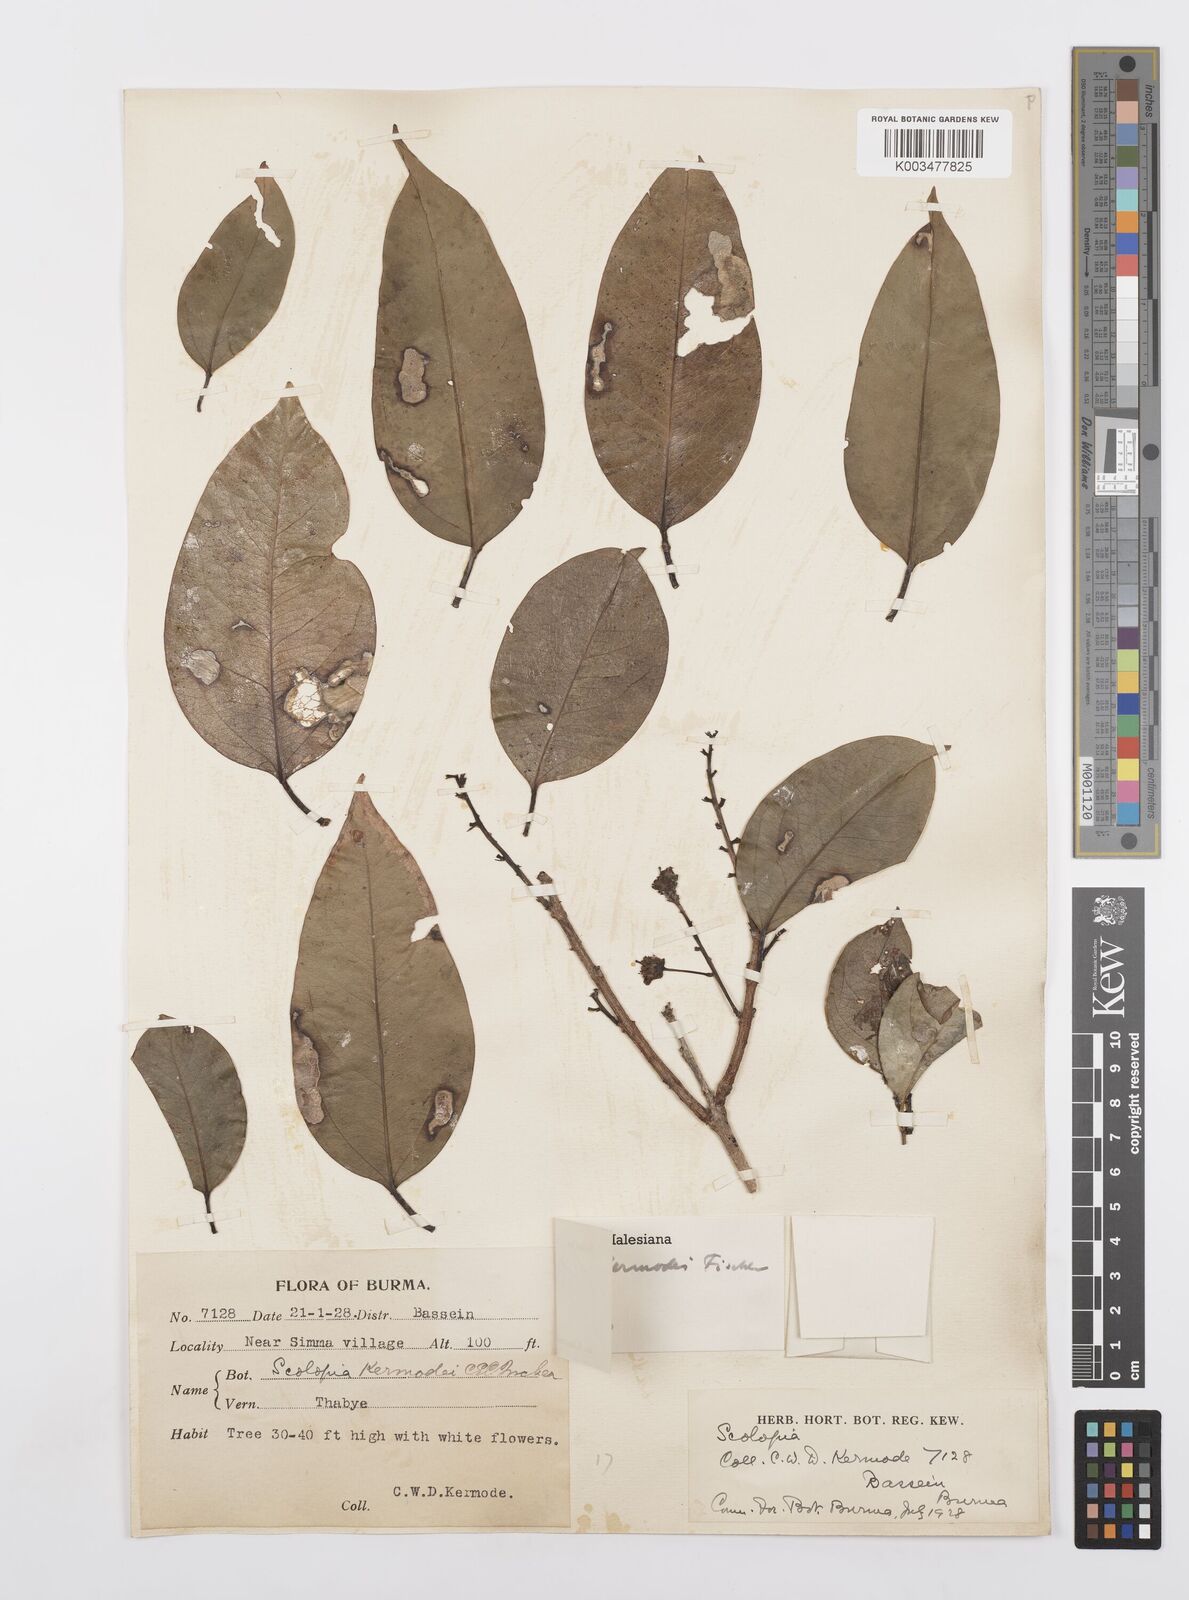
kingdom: Plantae
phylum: Tracheophyta
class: Magnoliopsida
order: Malpighiales
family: Salicaceae
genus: Scolopia
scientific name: Scolopia kermodei
